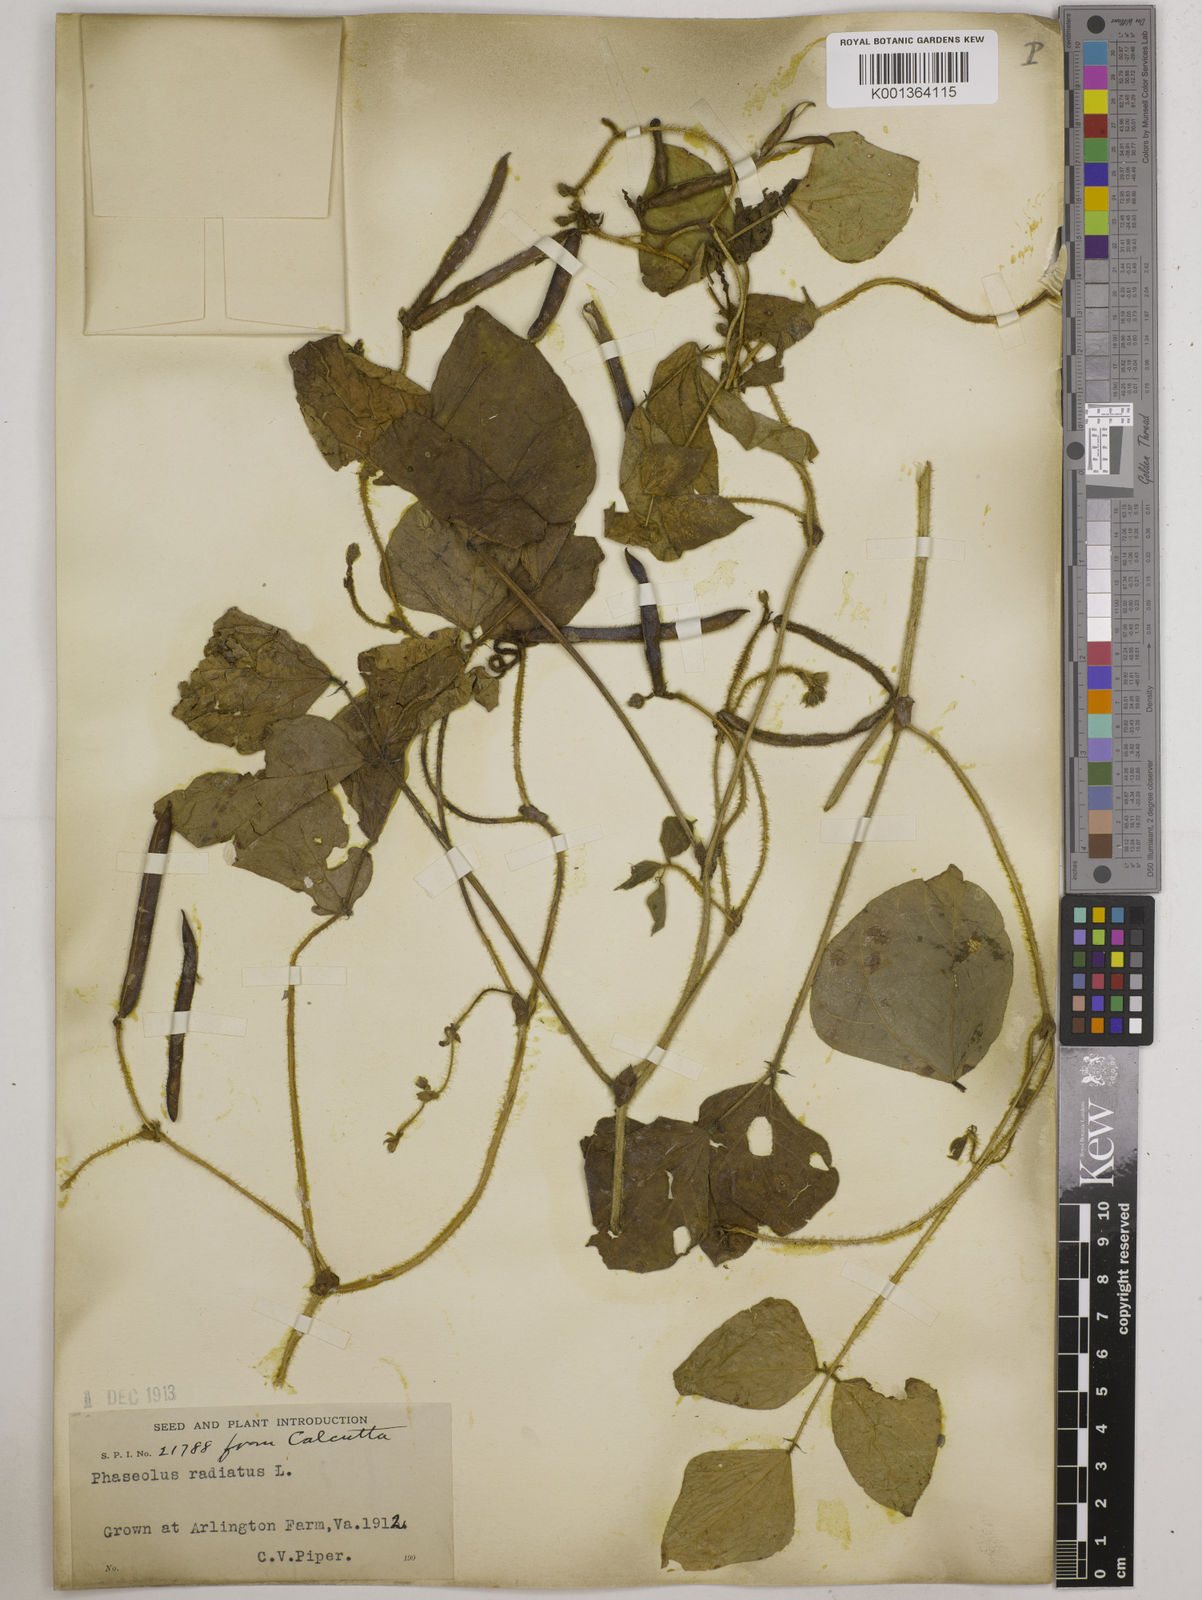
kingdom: Plantae
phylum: Tracheophyta
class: Magnoliopsida
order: Fabales
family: Fabaceae
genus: Vigna
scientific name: Vigna radiata
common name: Mung-bean
